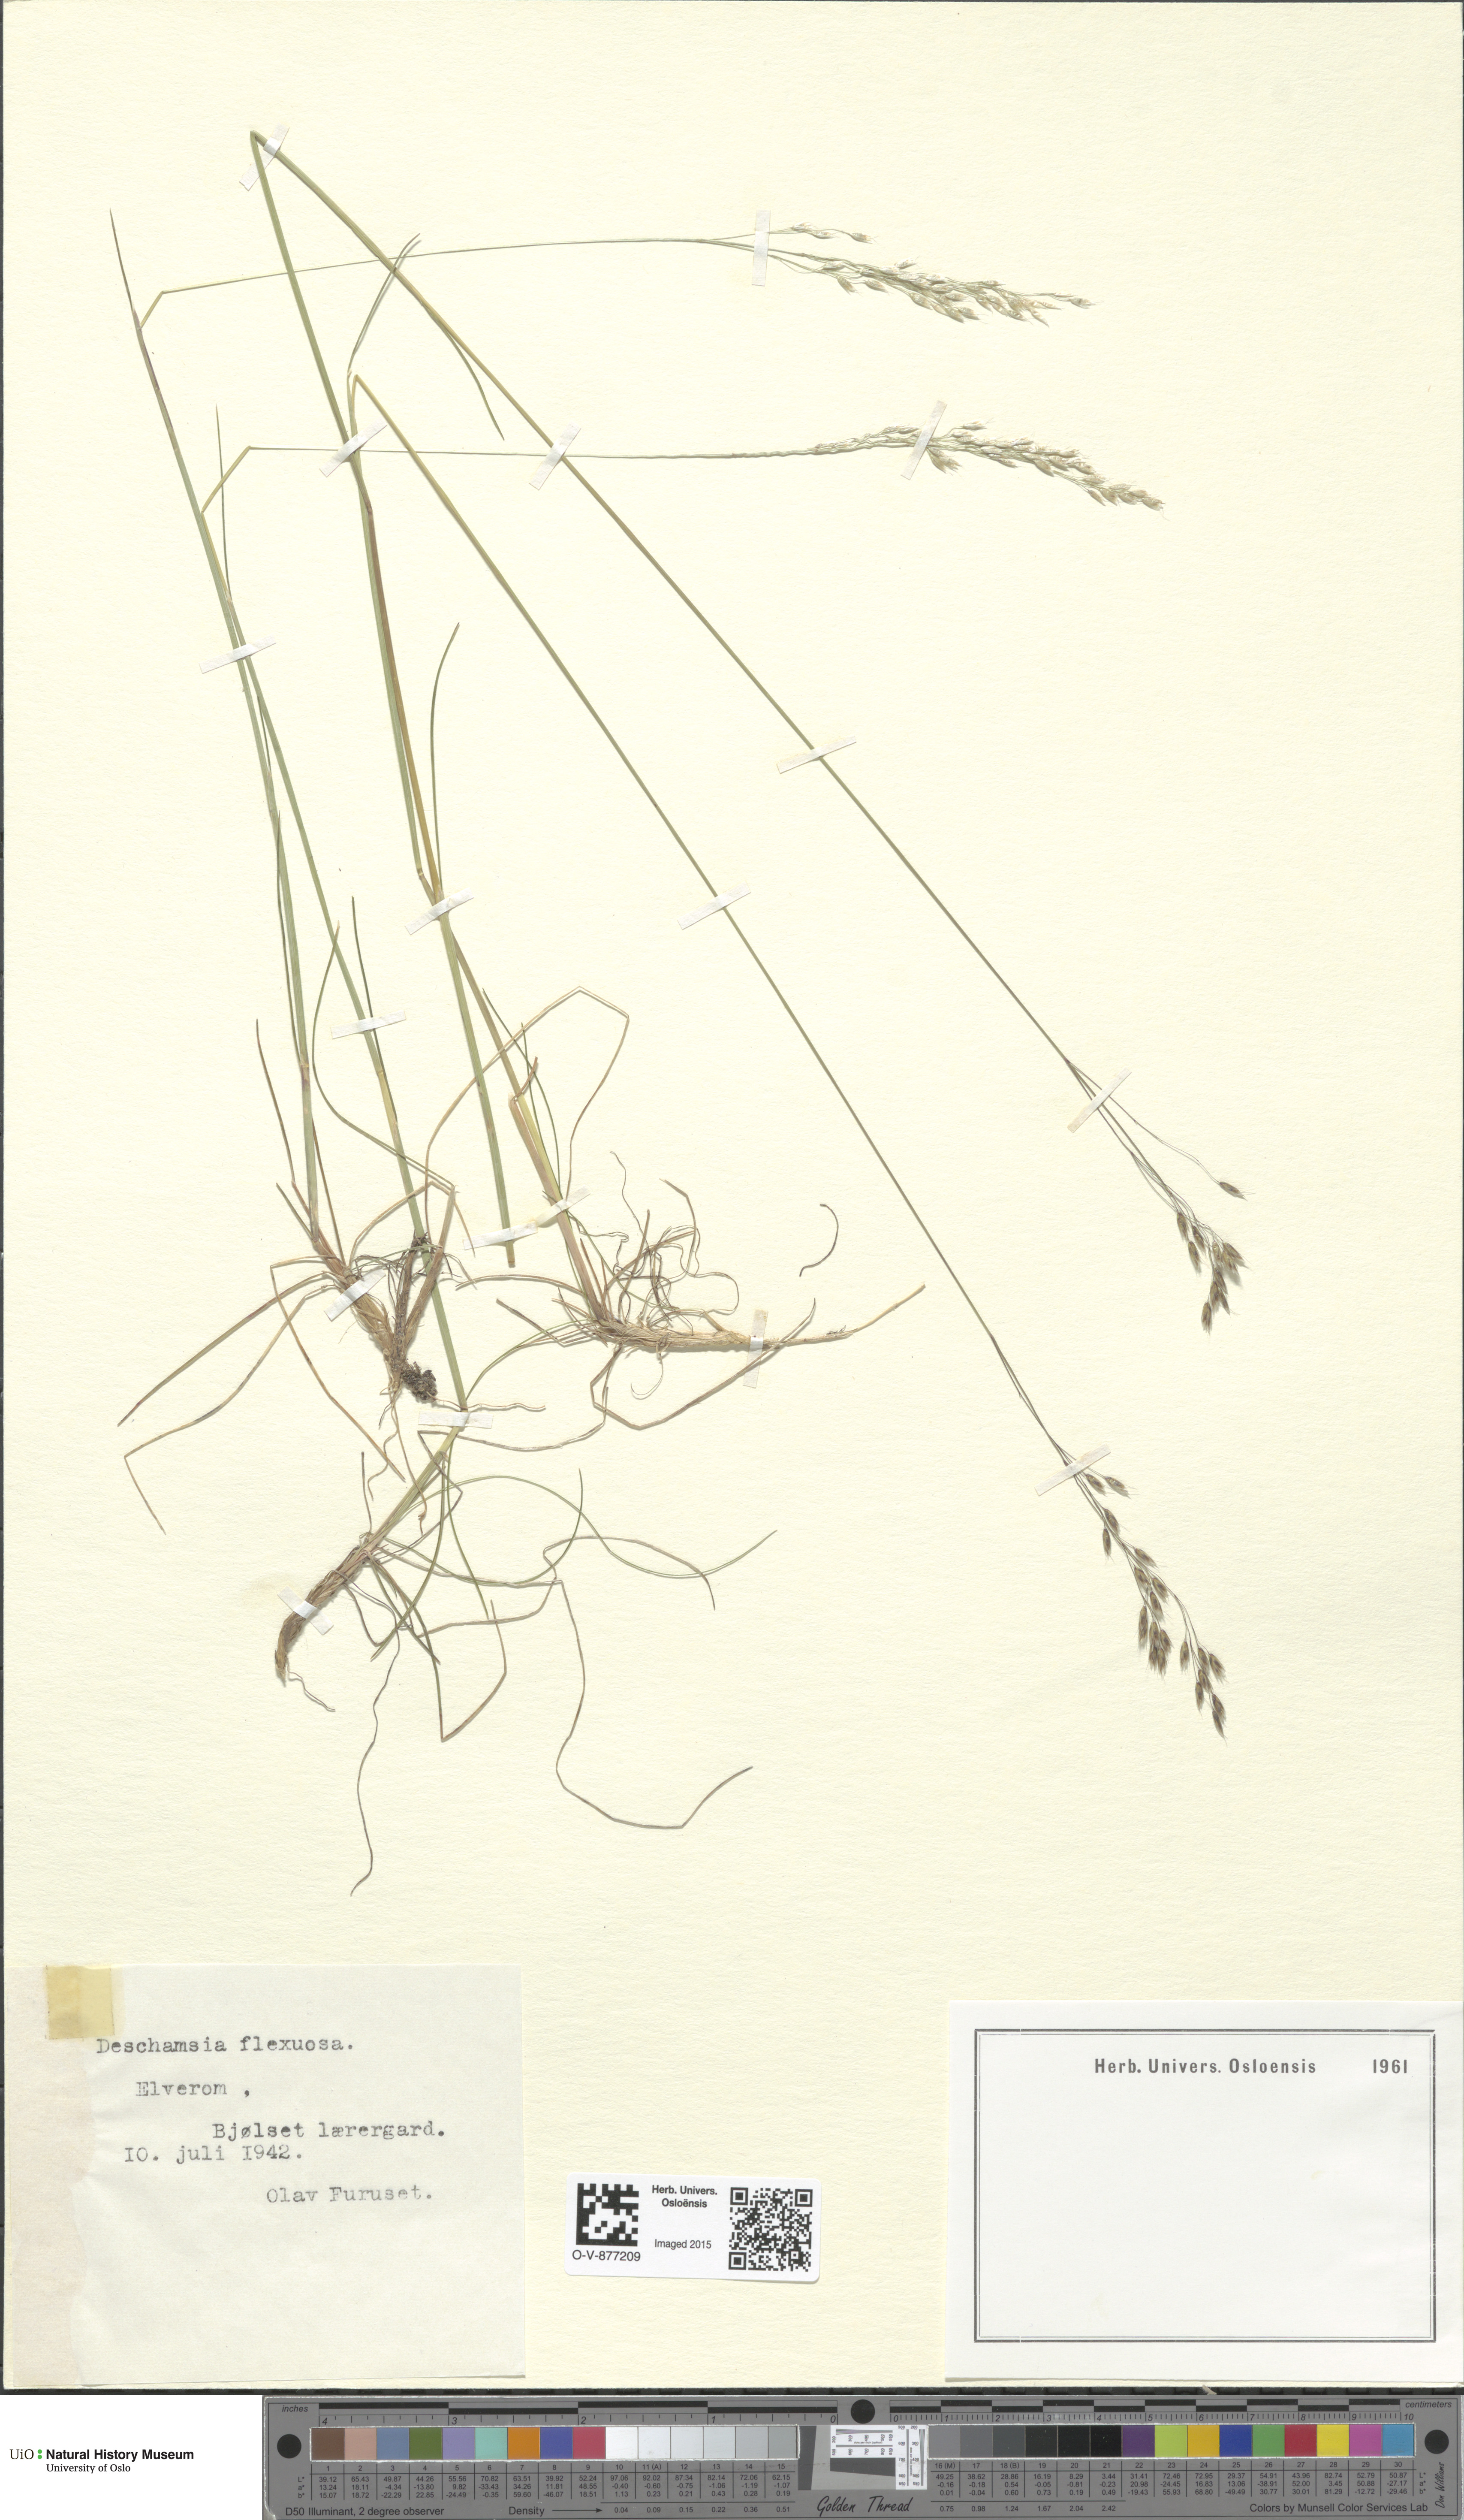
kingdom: Plantae
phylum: Tracheophyta
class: Liliopsida
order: Poales
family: Poaceae
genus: Avenella
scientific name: Avenella flexuosa
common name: Wavy hairgrass
